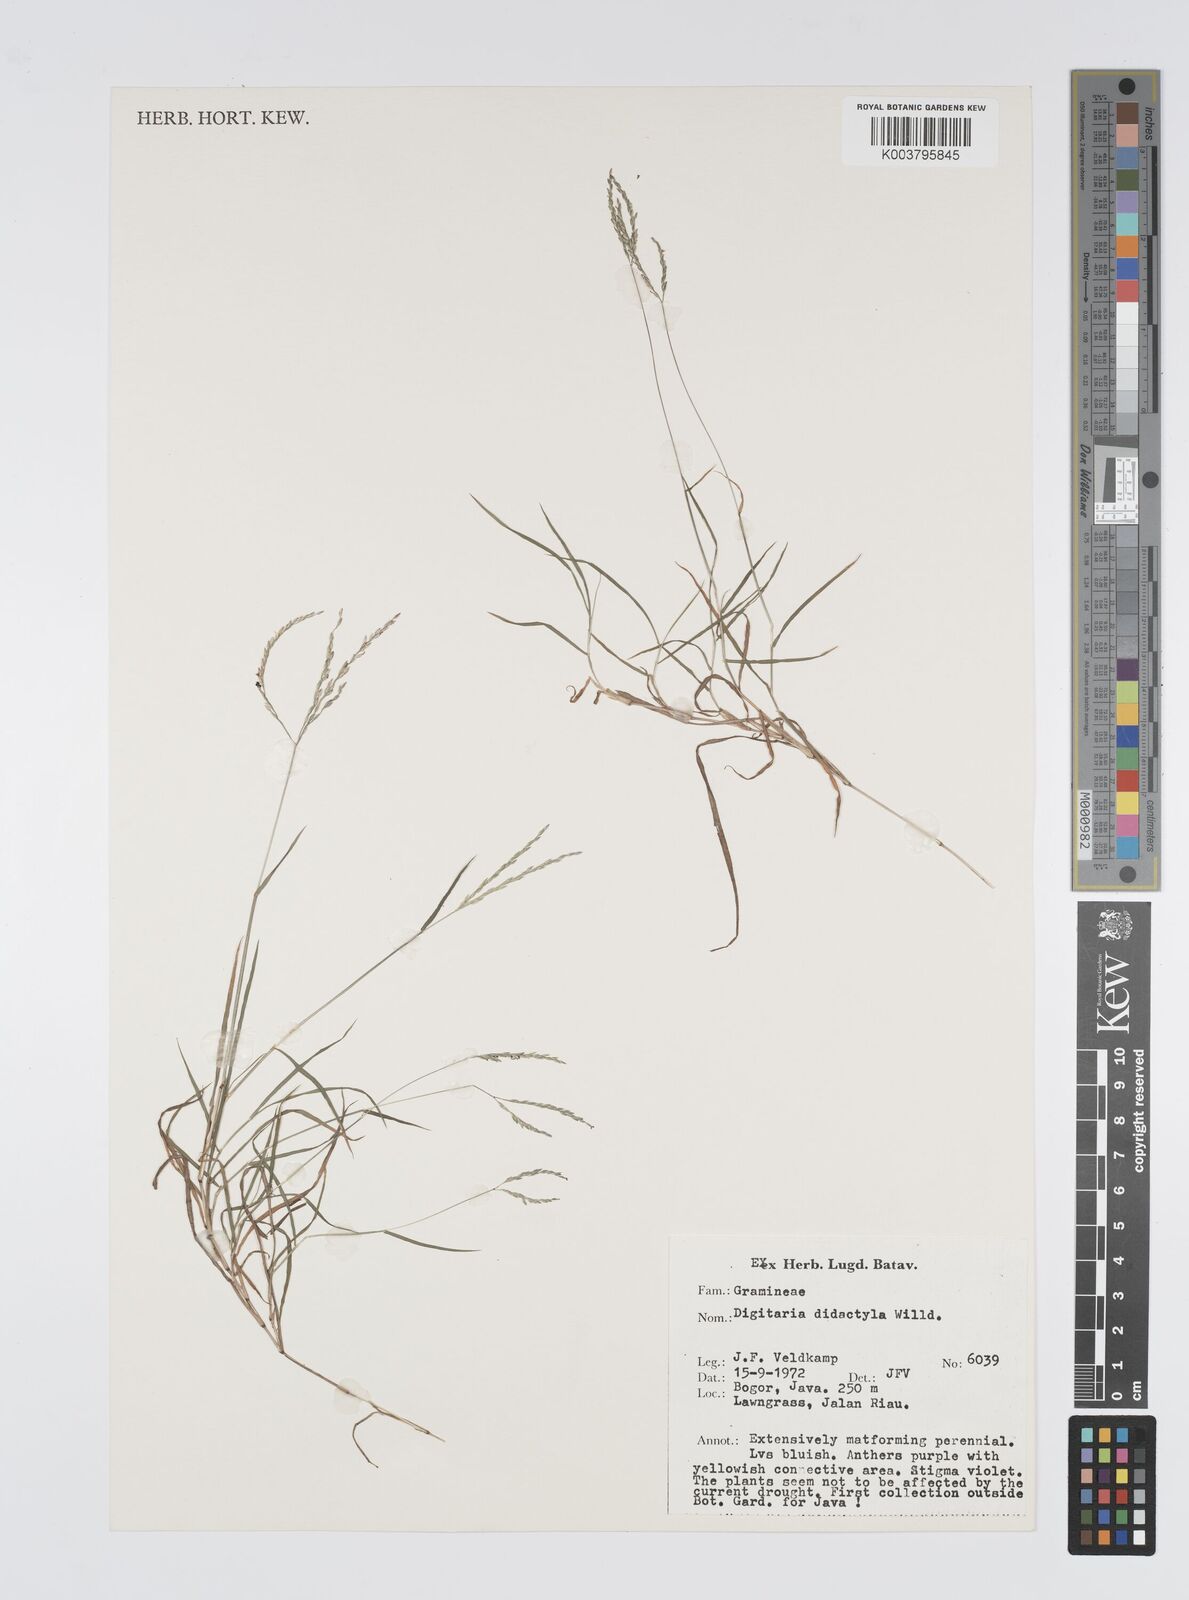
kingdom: Plantae
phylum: Tracheophyta
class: Liliopsida
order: Poales
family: Poaceae
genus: Digitaria
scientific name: Digitaria didactyla
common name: Blue couch
